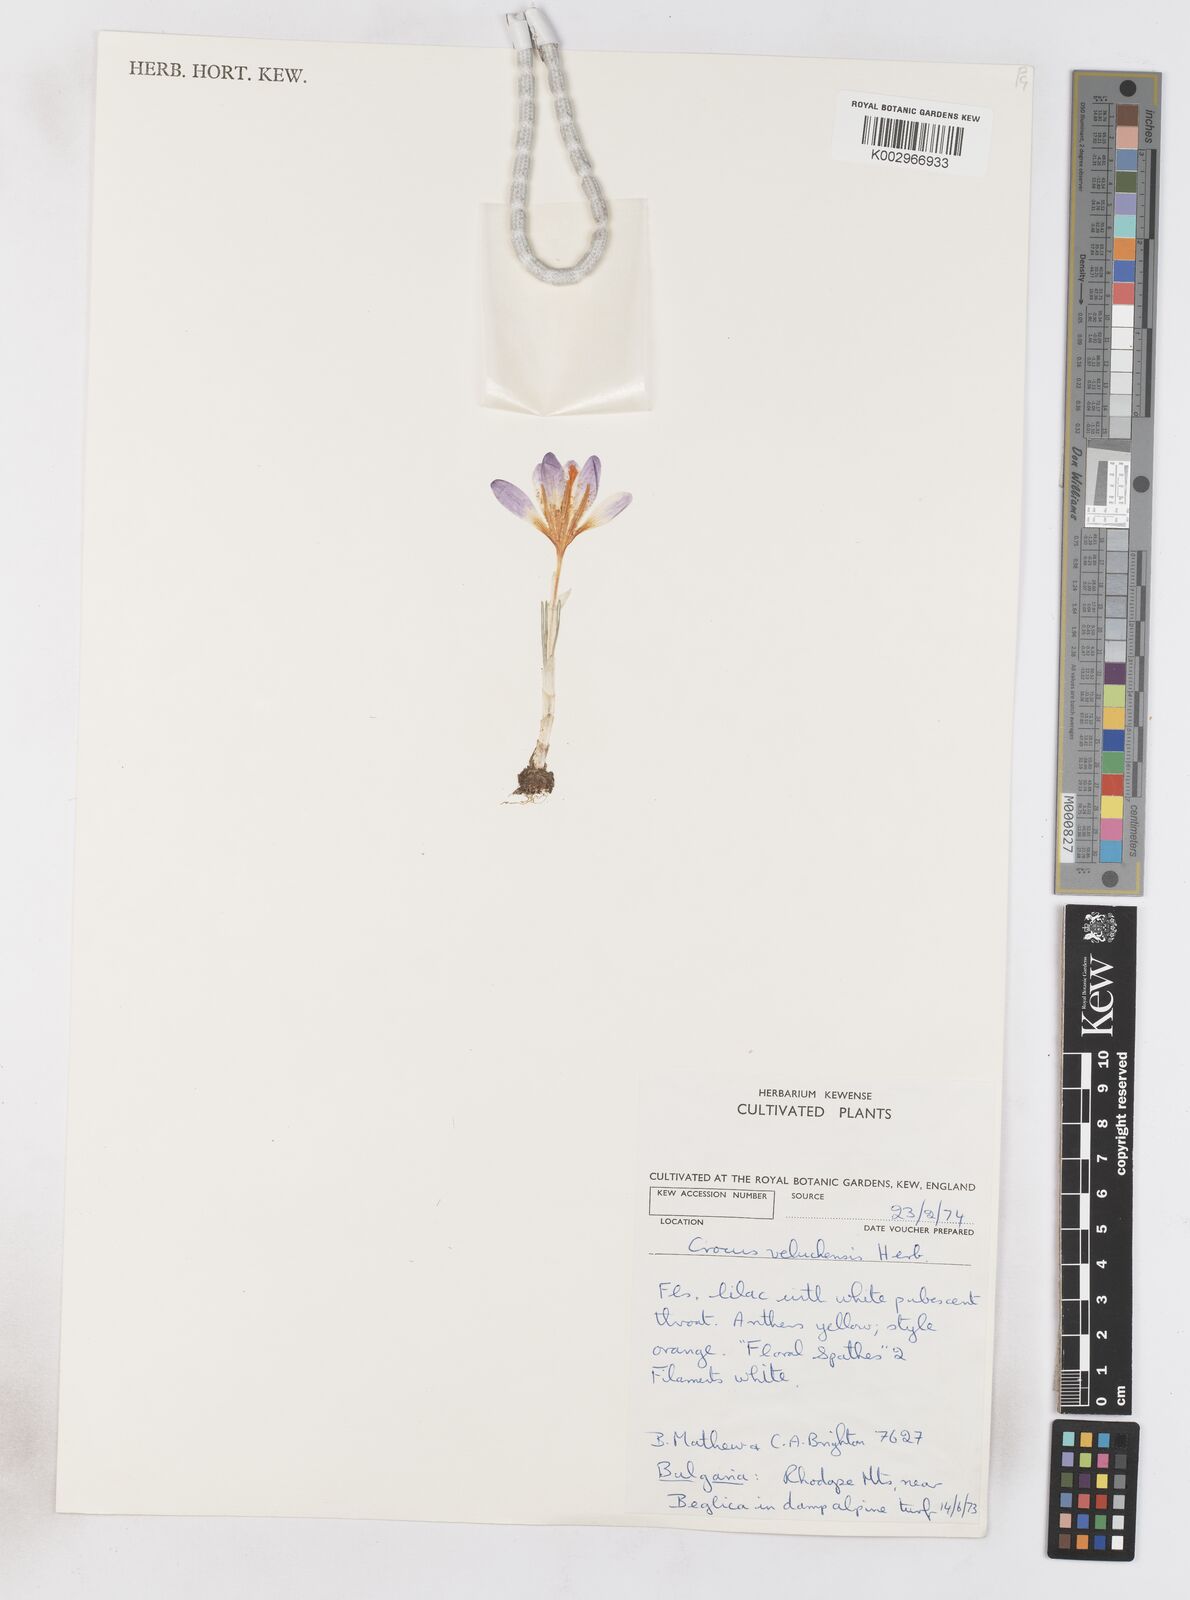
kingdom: Plantae
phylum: Tracheophyta
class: Liliopsida
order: Asparagales
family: Iridaceae
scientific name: Iridaceae
